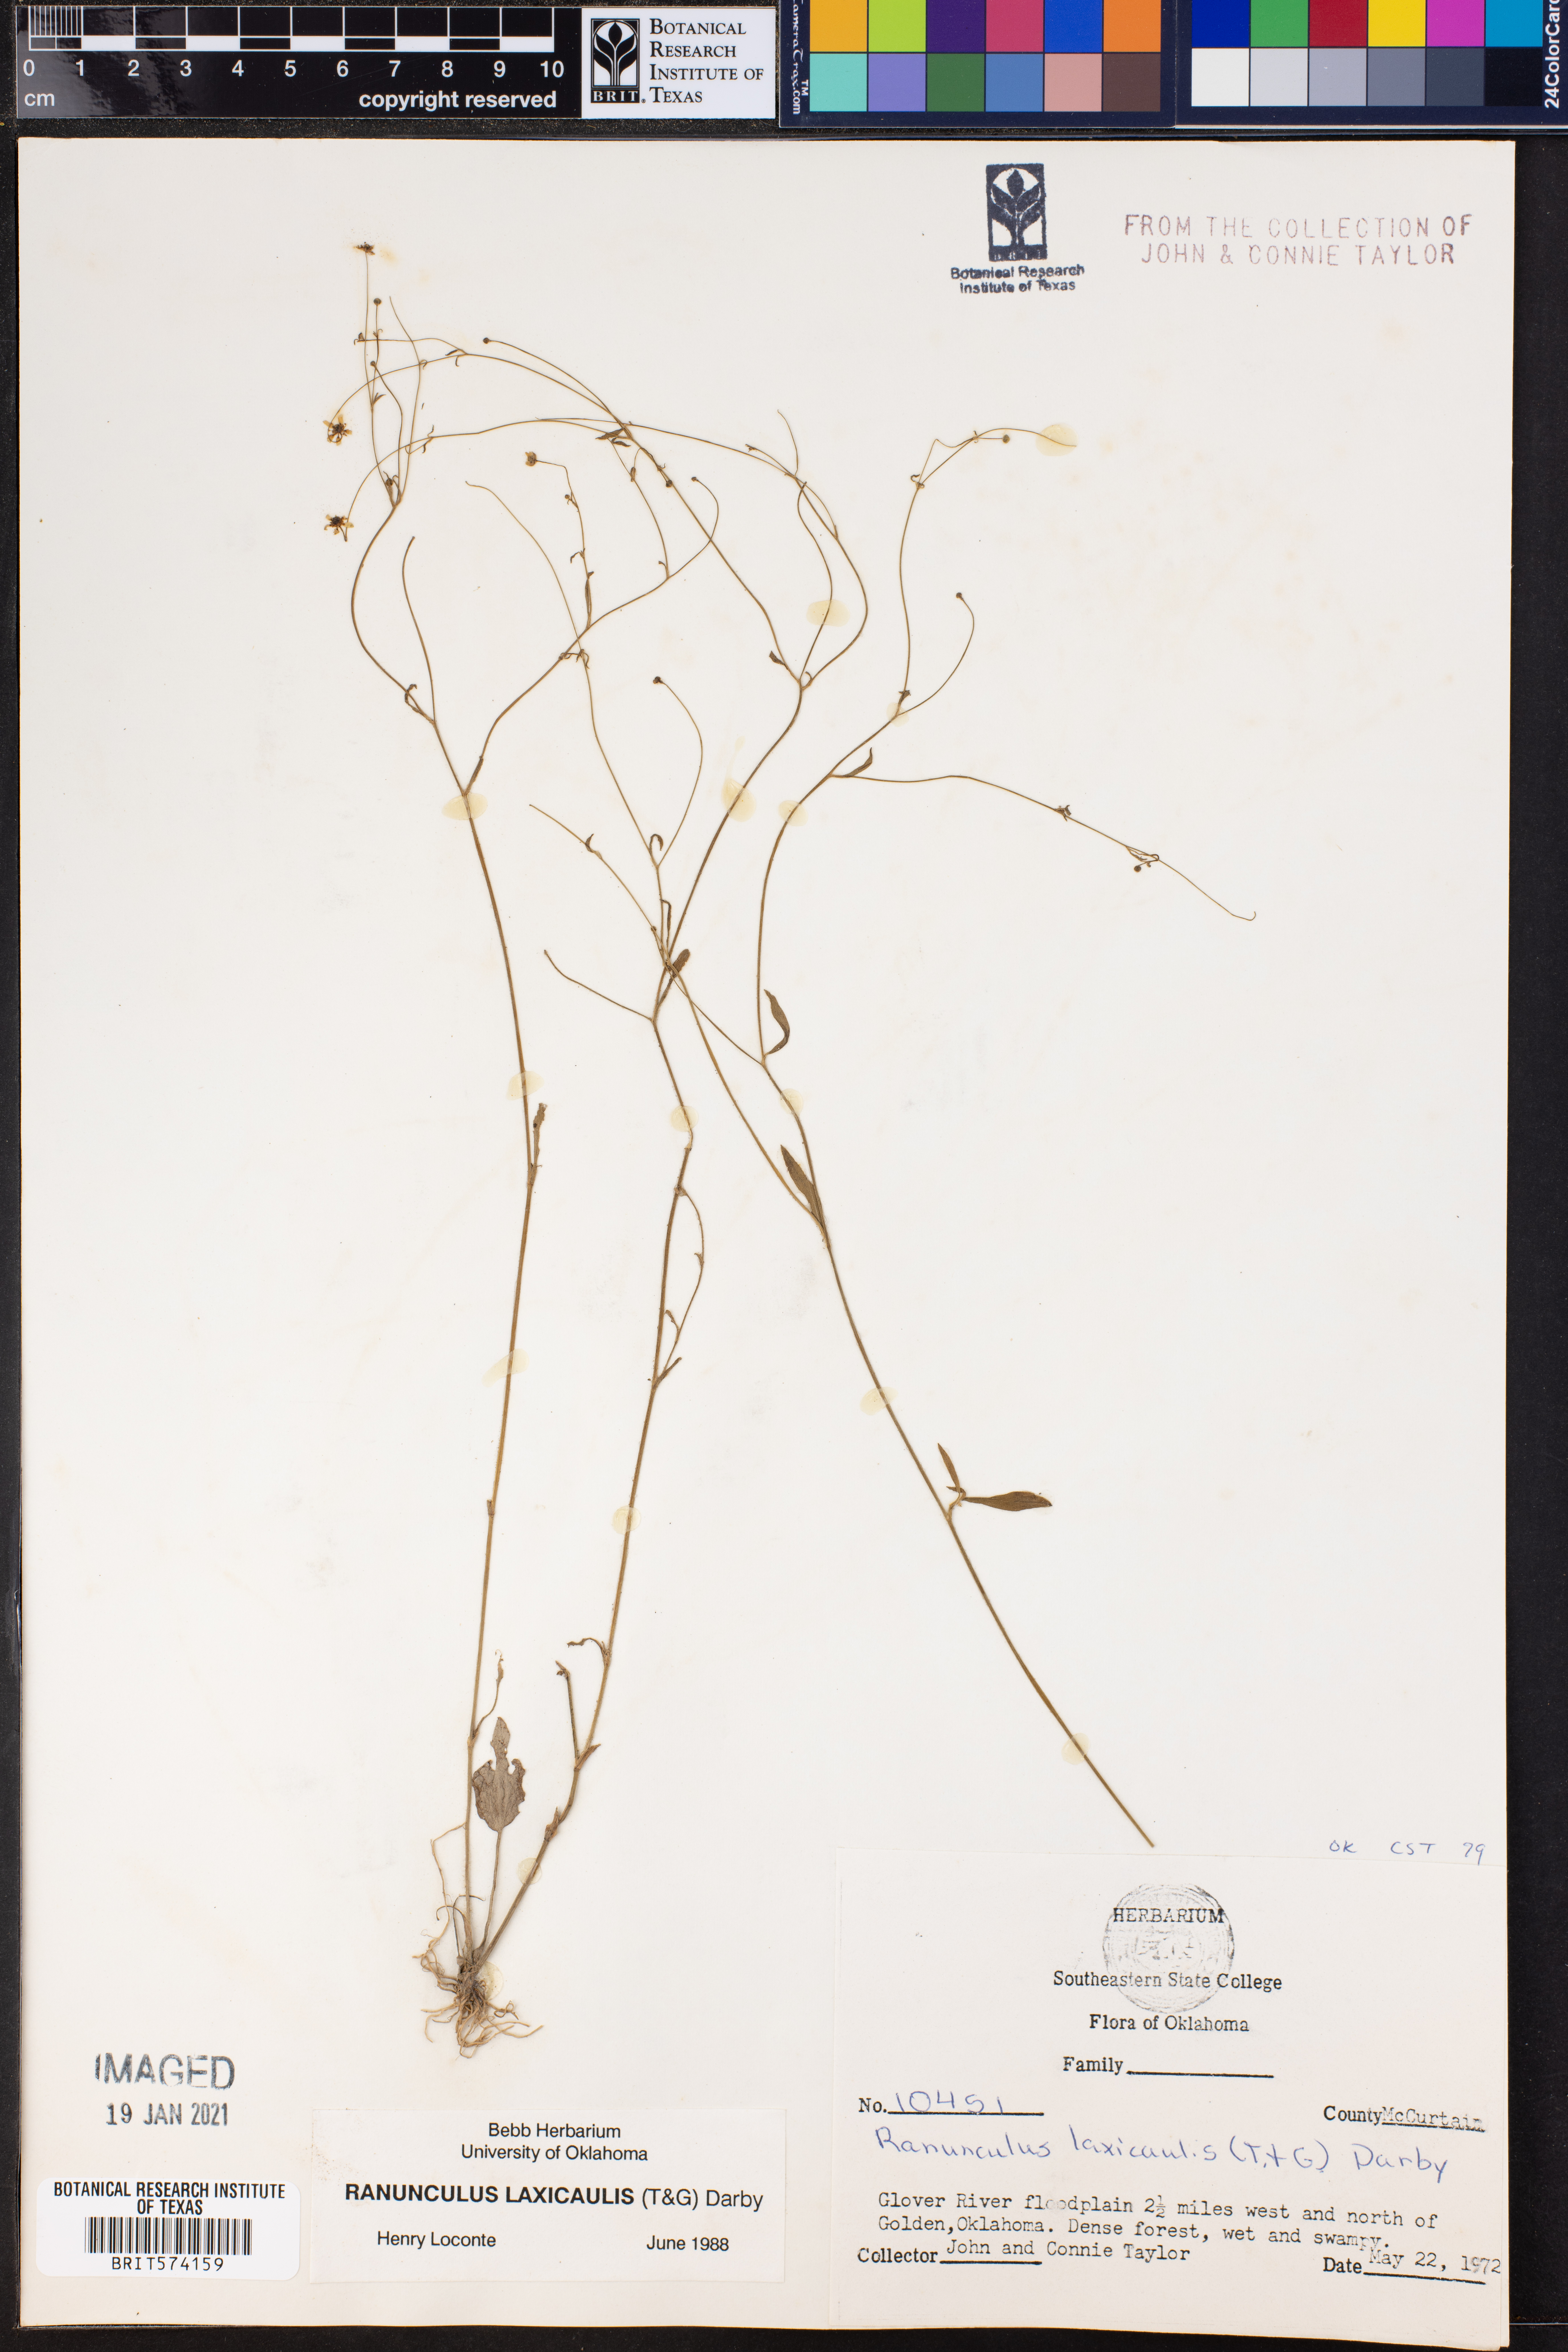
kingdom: Plantae
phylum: Tracheophyta
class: Magnoliopsida
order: Ranunculales
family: Ranunculaceae
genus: Ranunculus
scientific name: Ranunculus laxicaulis
